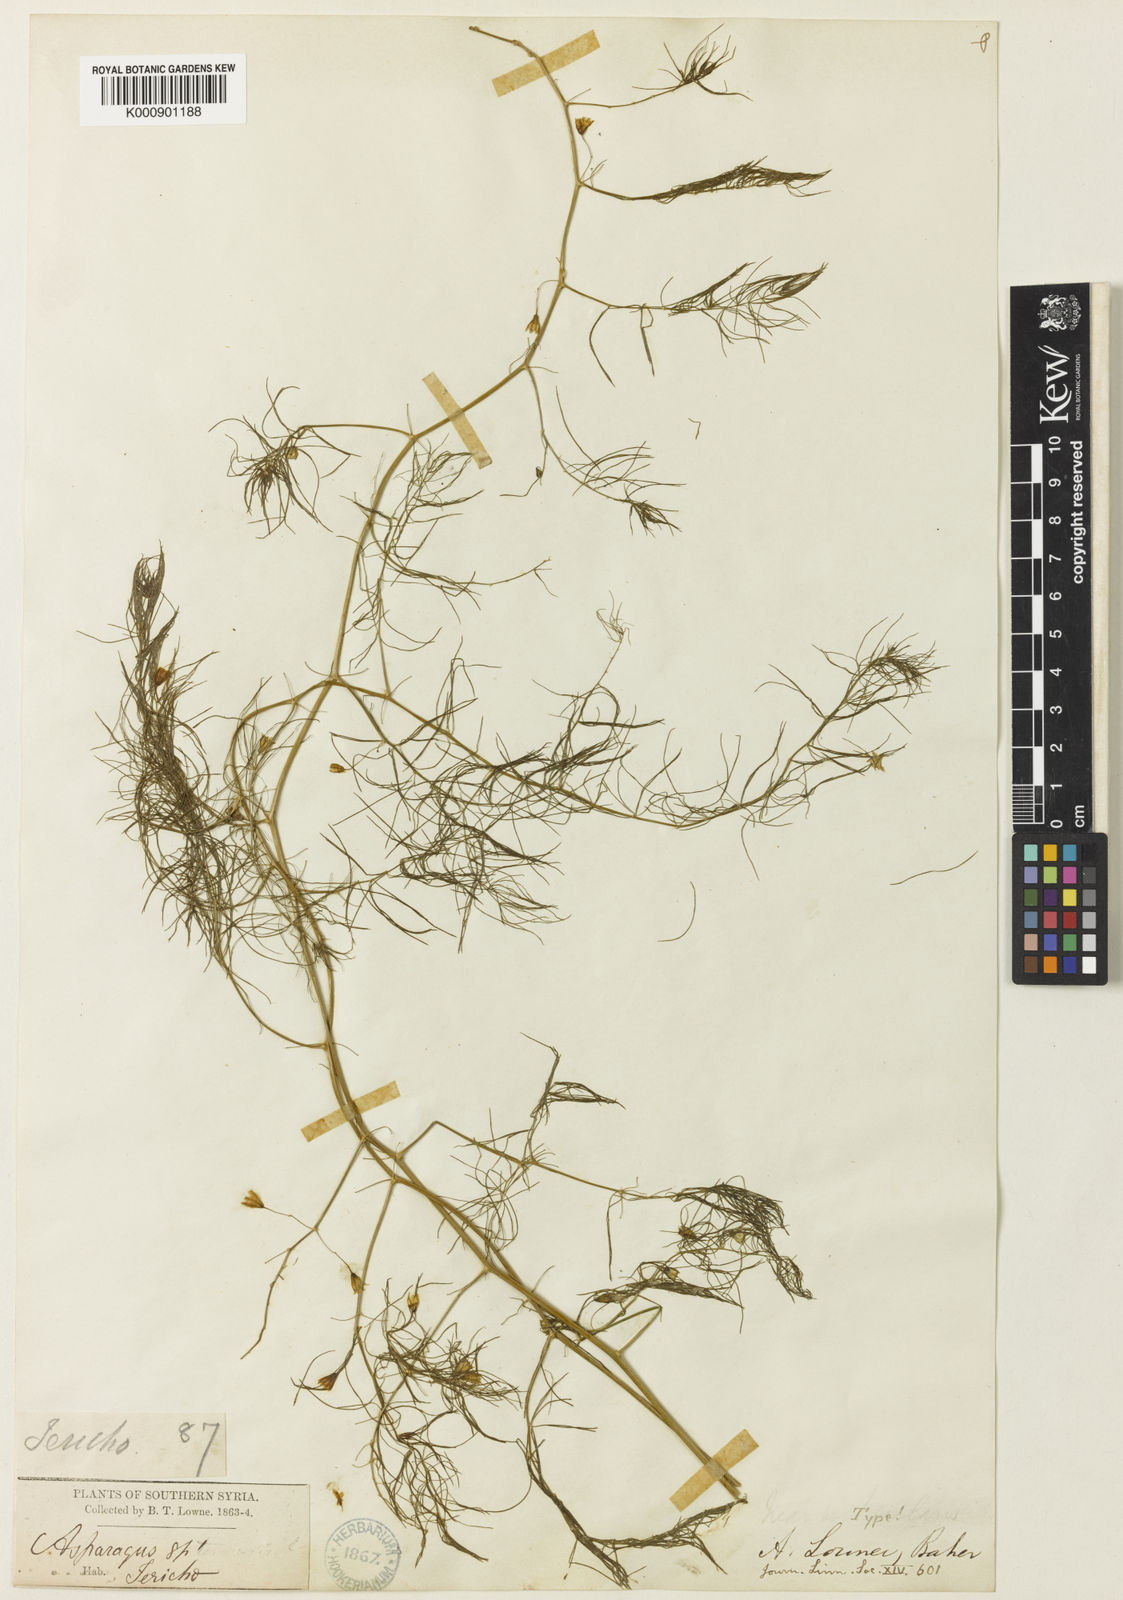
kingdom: Plantae
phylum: Tracheophyta
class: Liliopsida
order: Asparagales
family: Asparagaceae
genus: Asparagus
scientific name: Asparagus palaestinus
